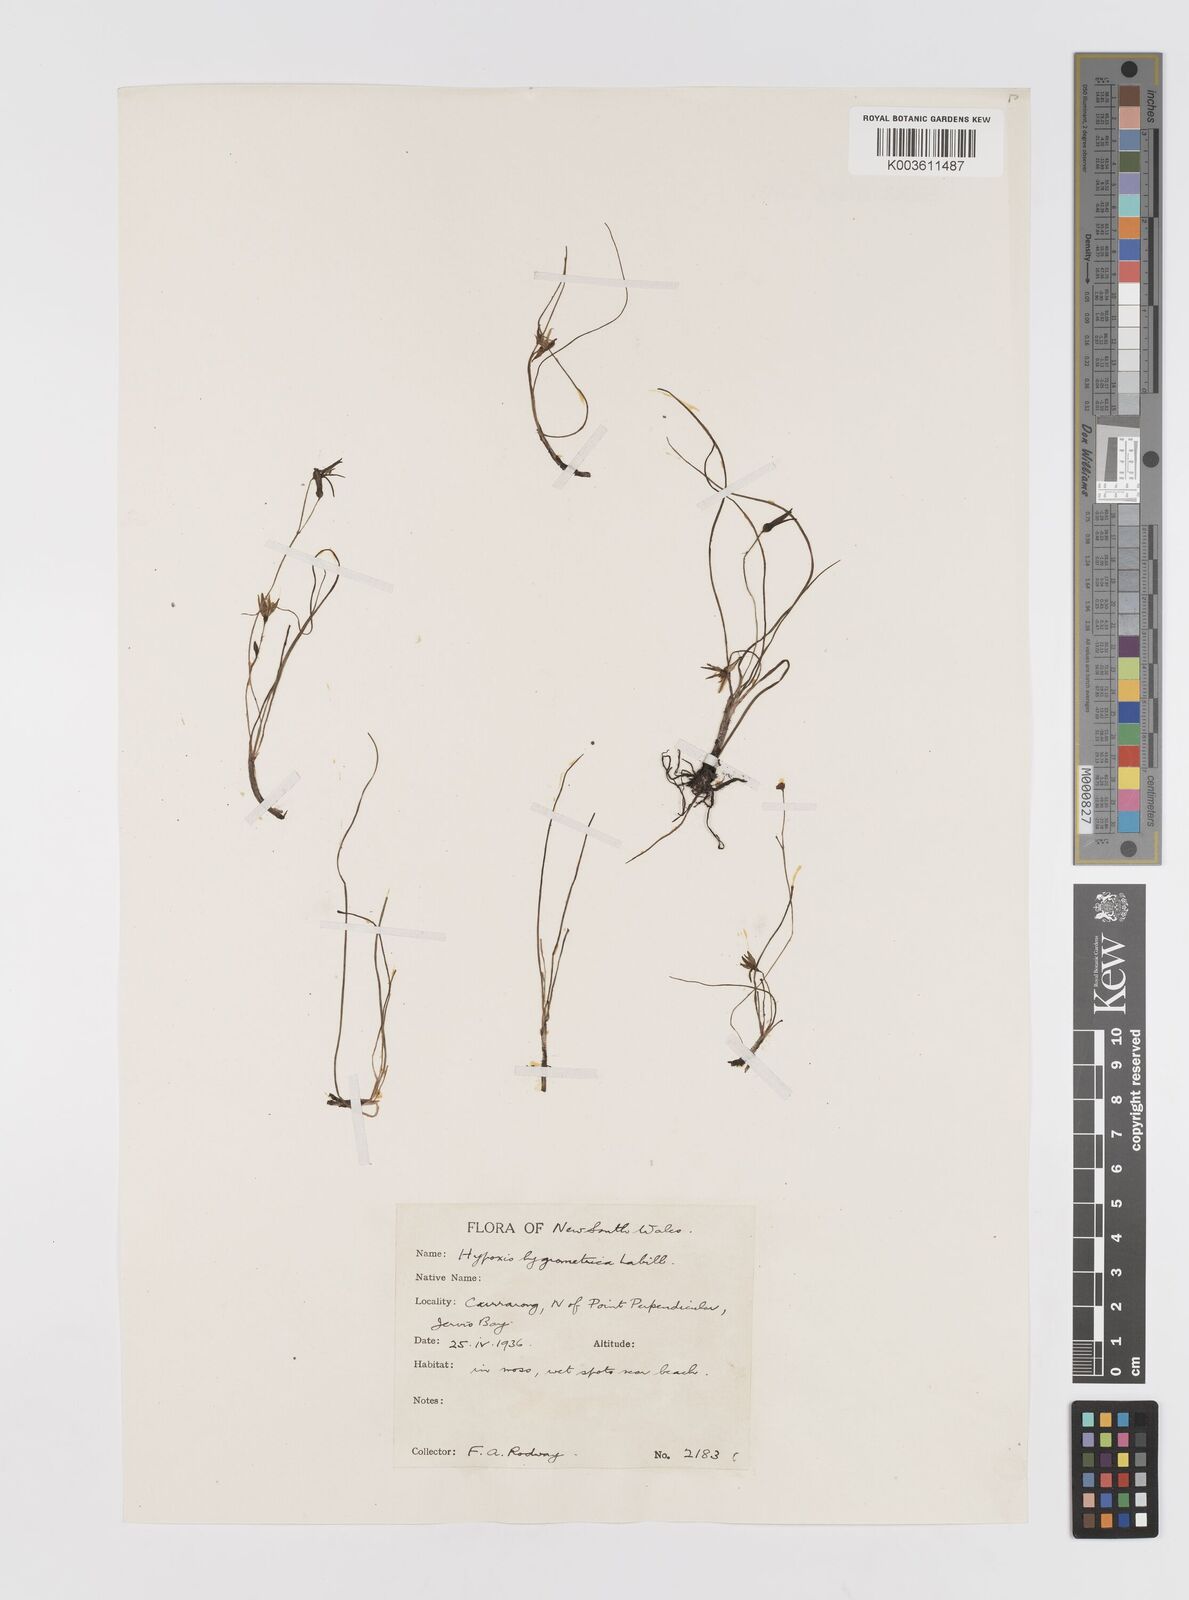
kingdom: Plantae
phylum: Tracheophyta
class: Liliopsida
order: Asparagales
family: Hypoxidaceae
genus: Hypoxis
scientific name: Hypoxis hygrometrica
